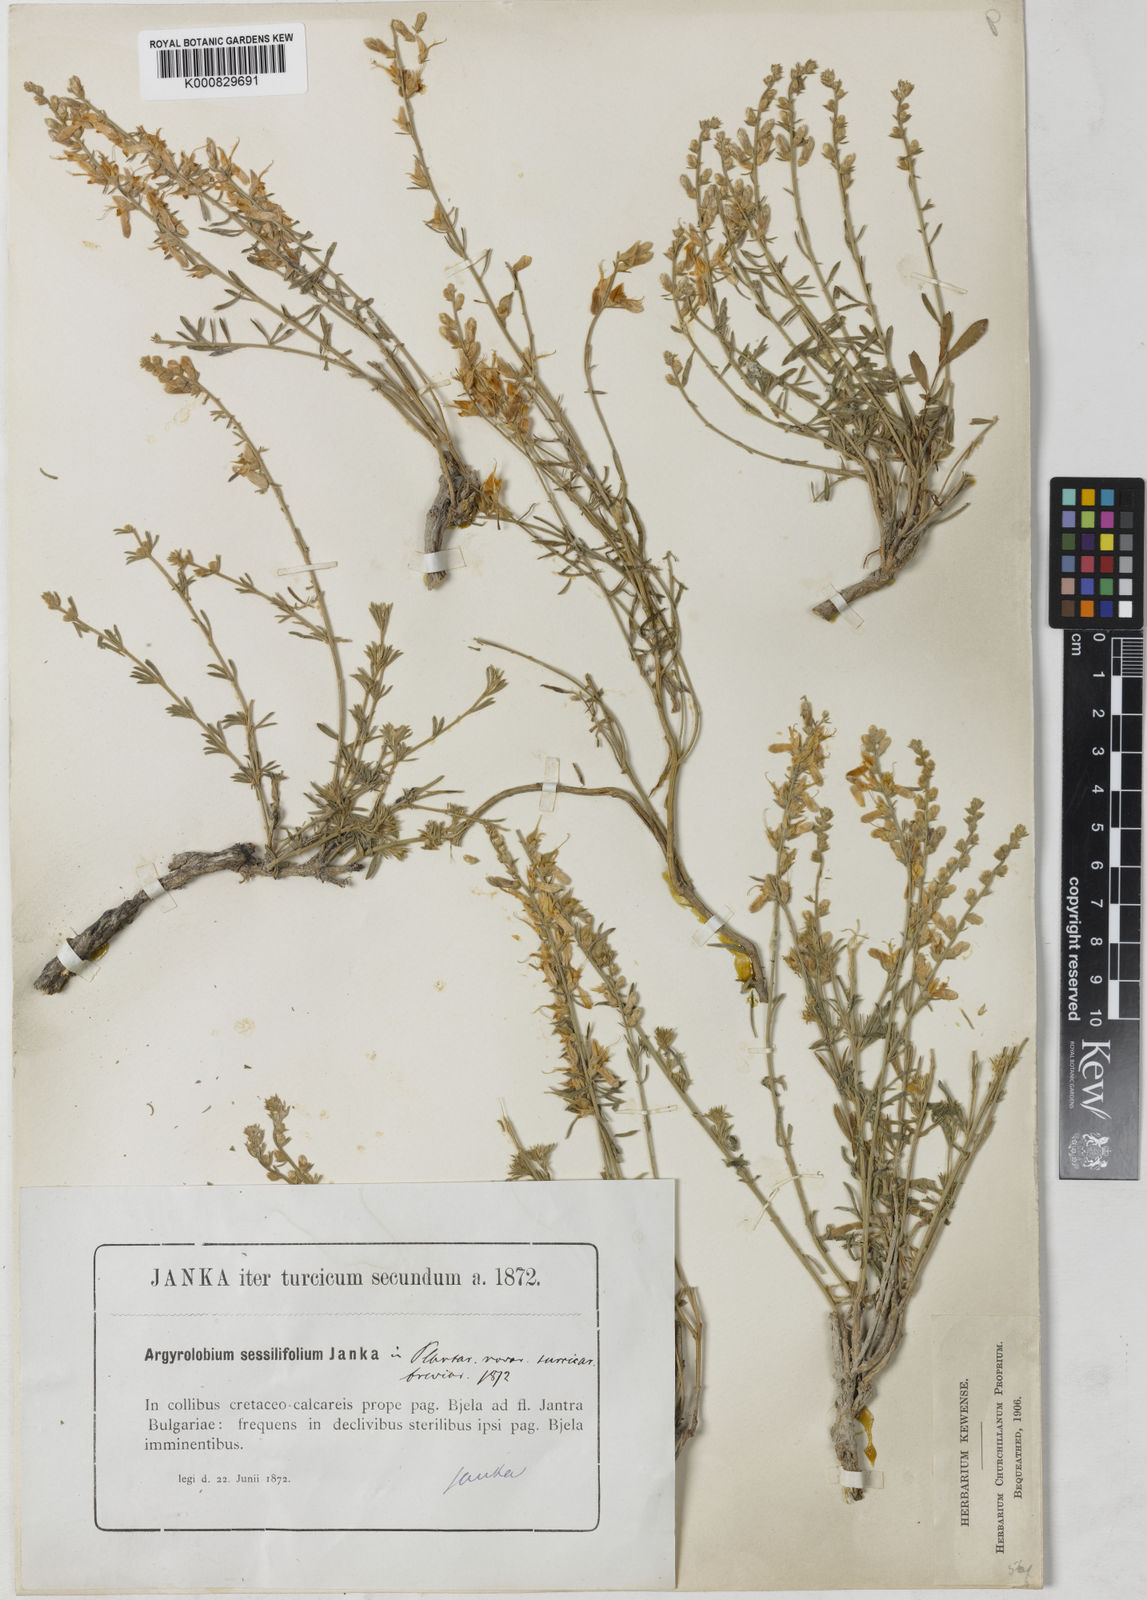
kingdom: Plantae
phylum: Tracheophyta
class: Magnoliopsida
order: Fabales
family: Fabaceae
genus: Genista
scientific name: Genista sessilifolia
